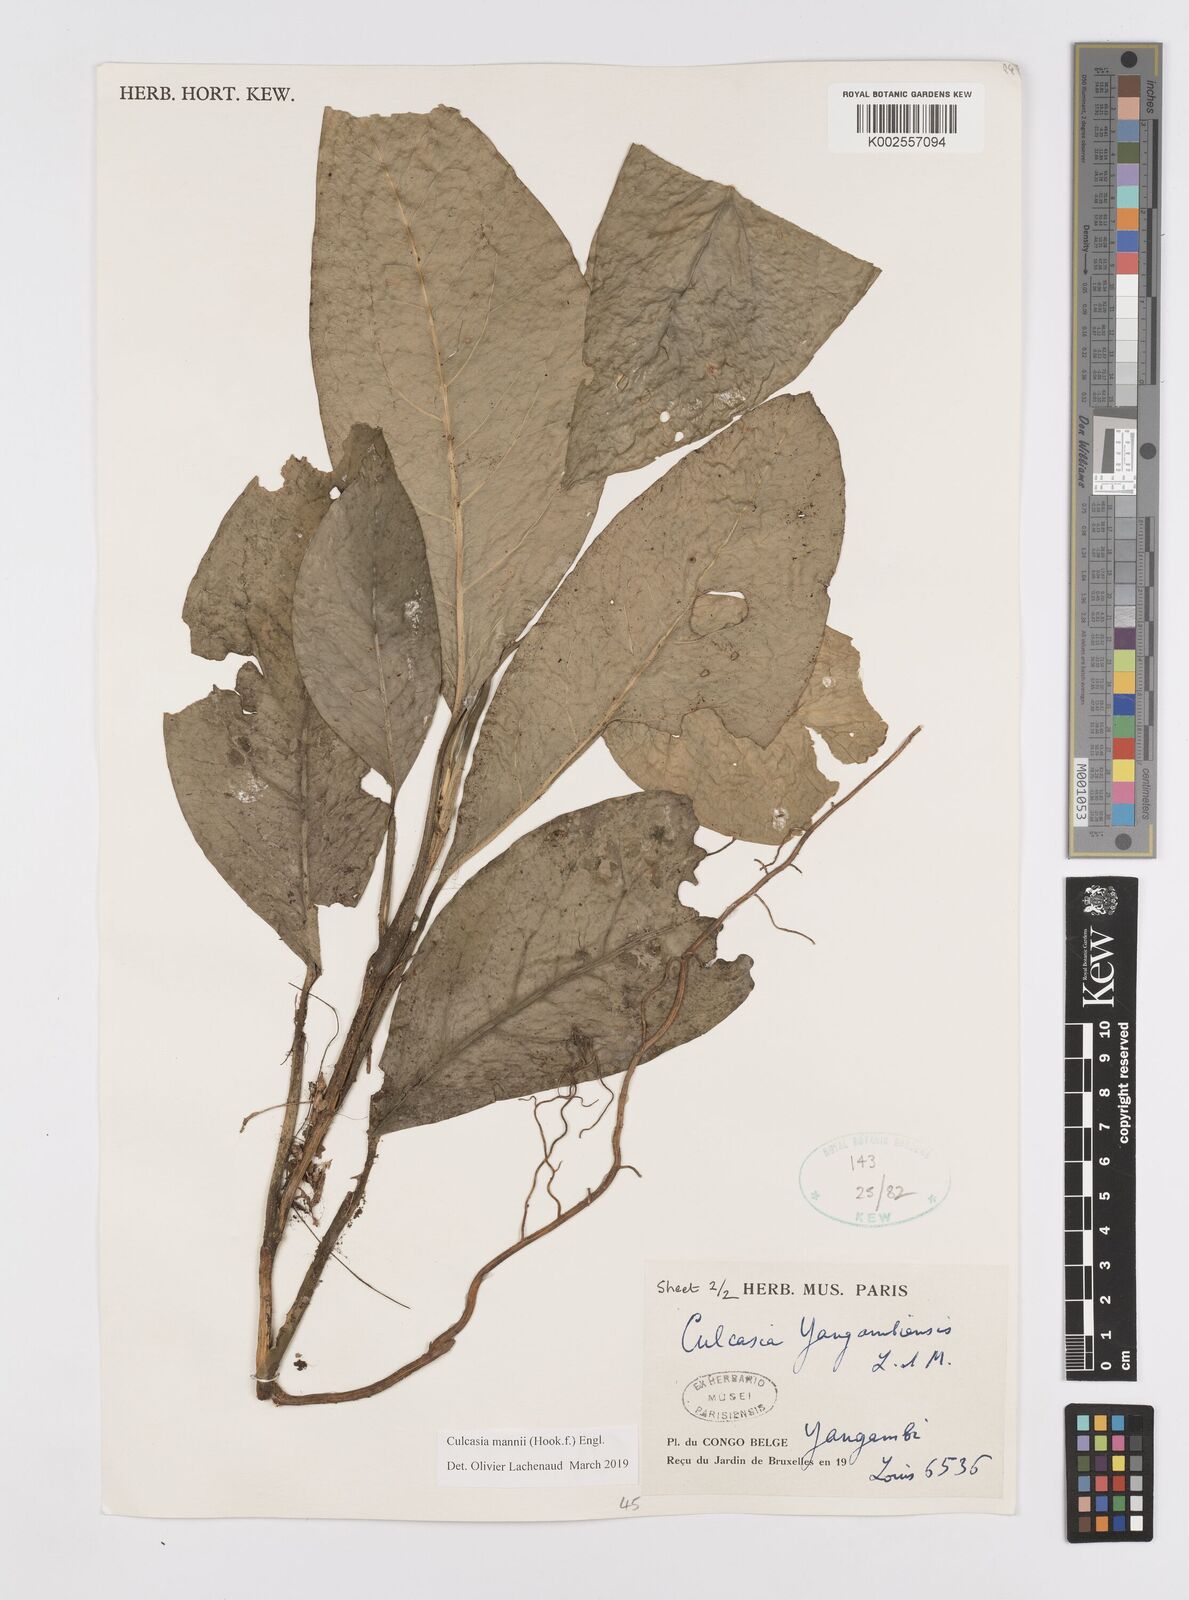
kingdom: Plantae
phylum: Tracheophyta
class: Liliopsida
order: Alismatales
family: Araceae
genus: Culcasia
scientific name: Culcasia mannii
